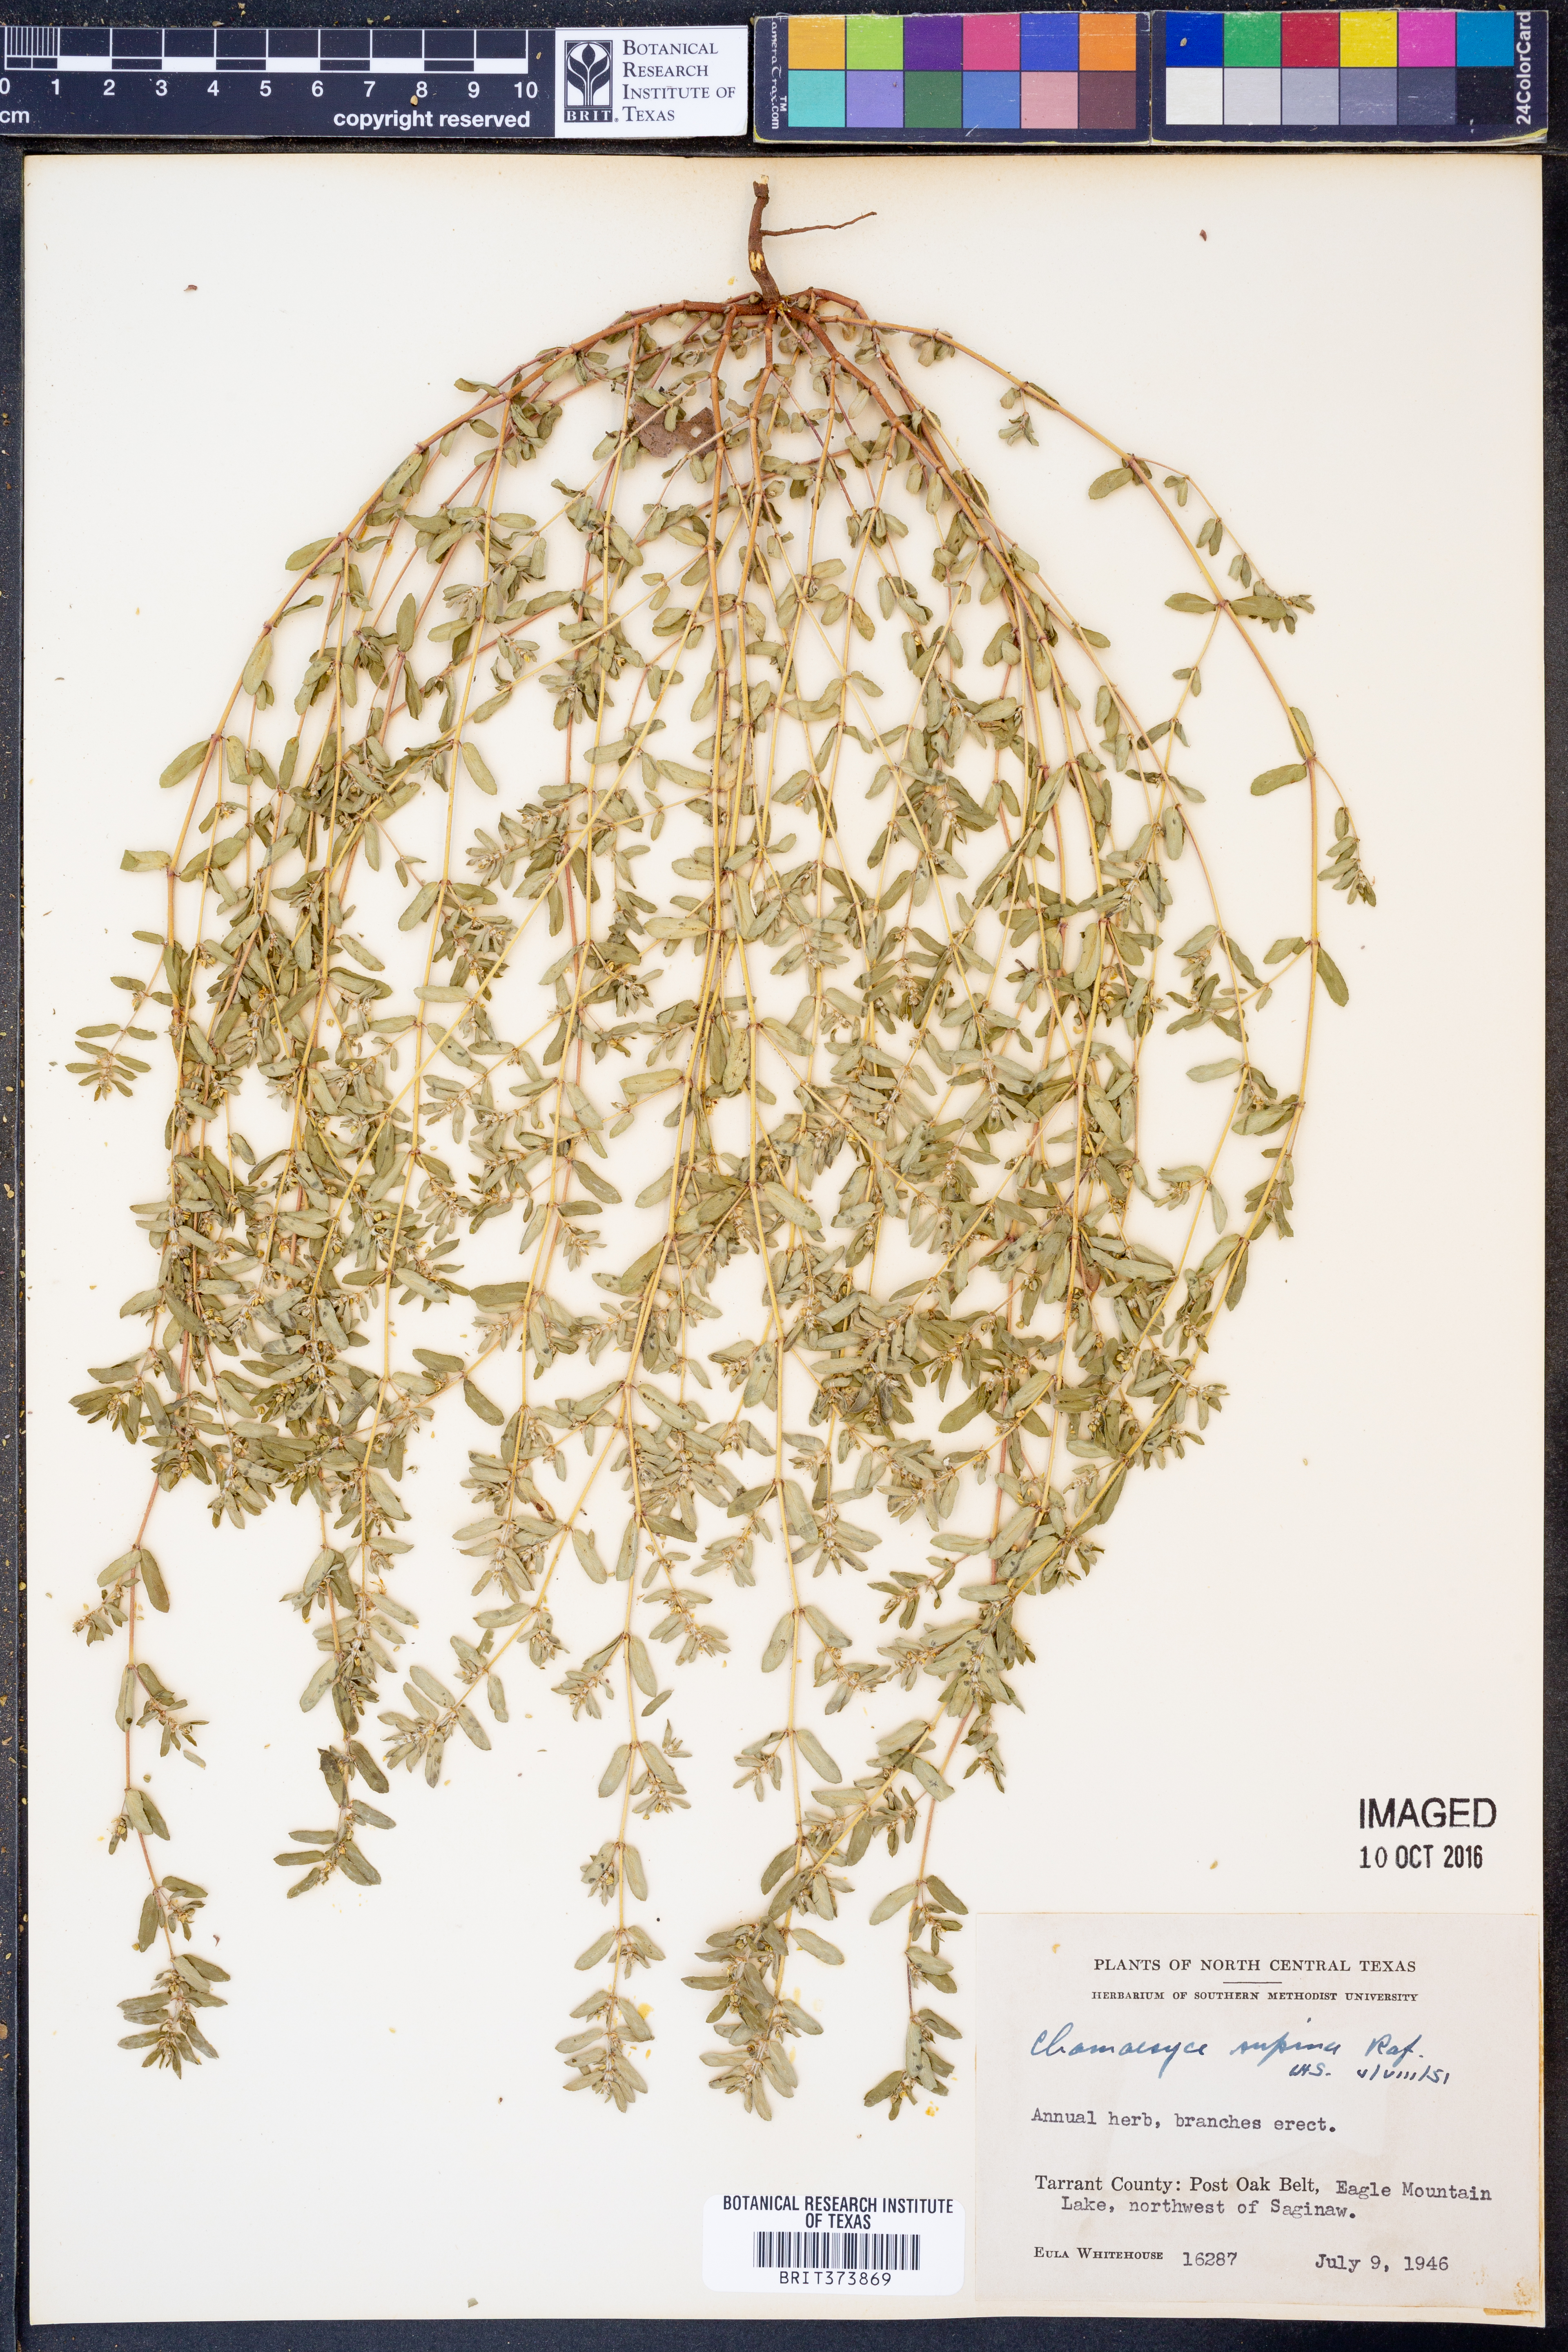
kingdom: Plantae
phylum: Tracheophyta
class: Magnoliopsida
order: Malpighiales
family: Euphorbiaceae
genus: Euphorbia
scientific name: Euphorbia maculata
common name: Spotted spurge
